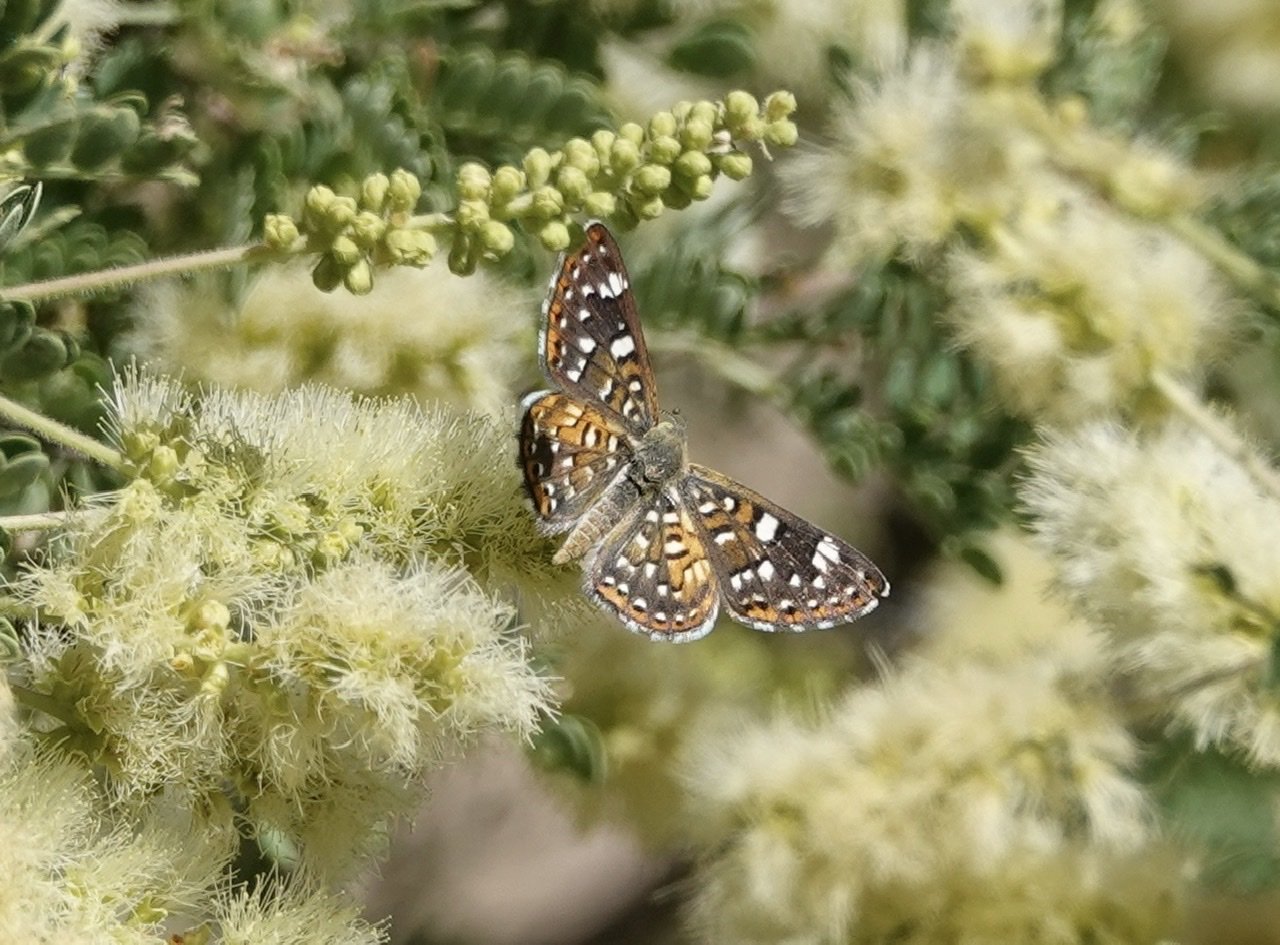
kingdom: Animalia
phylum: Arthropoda
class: Insecta
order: Lepidoptera
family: Riodinidae
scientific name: Riodinidae
